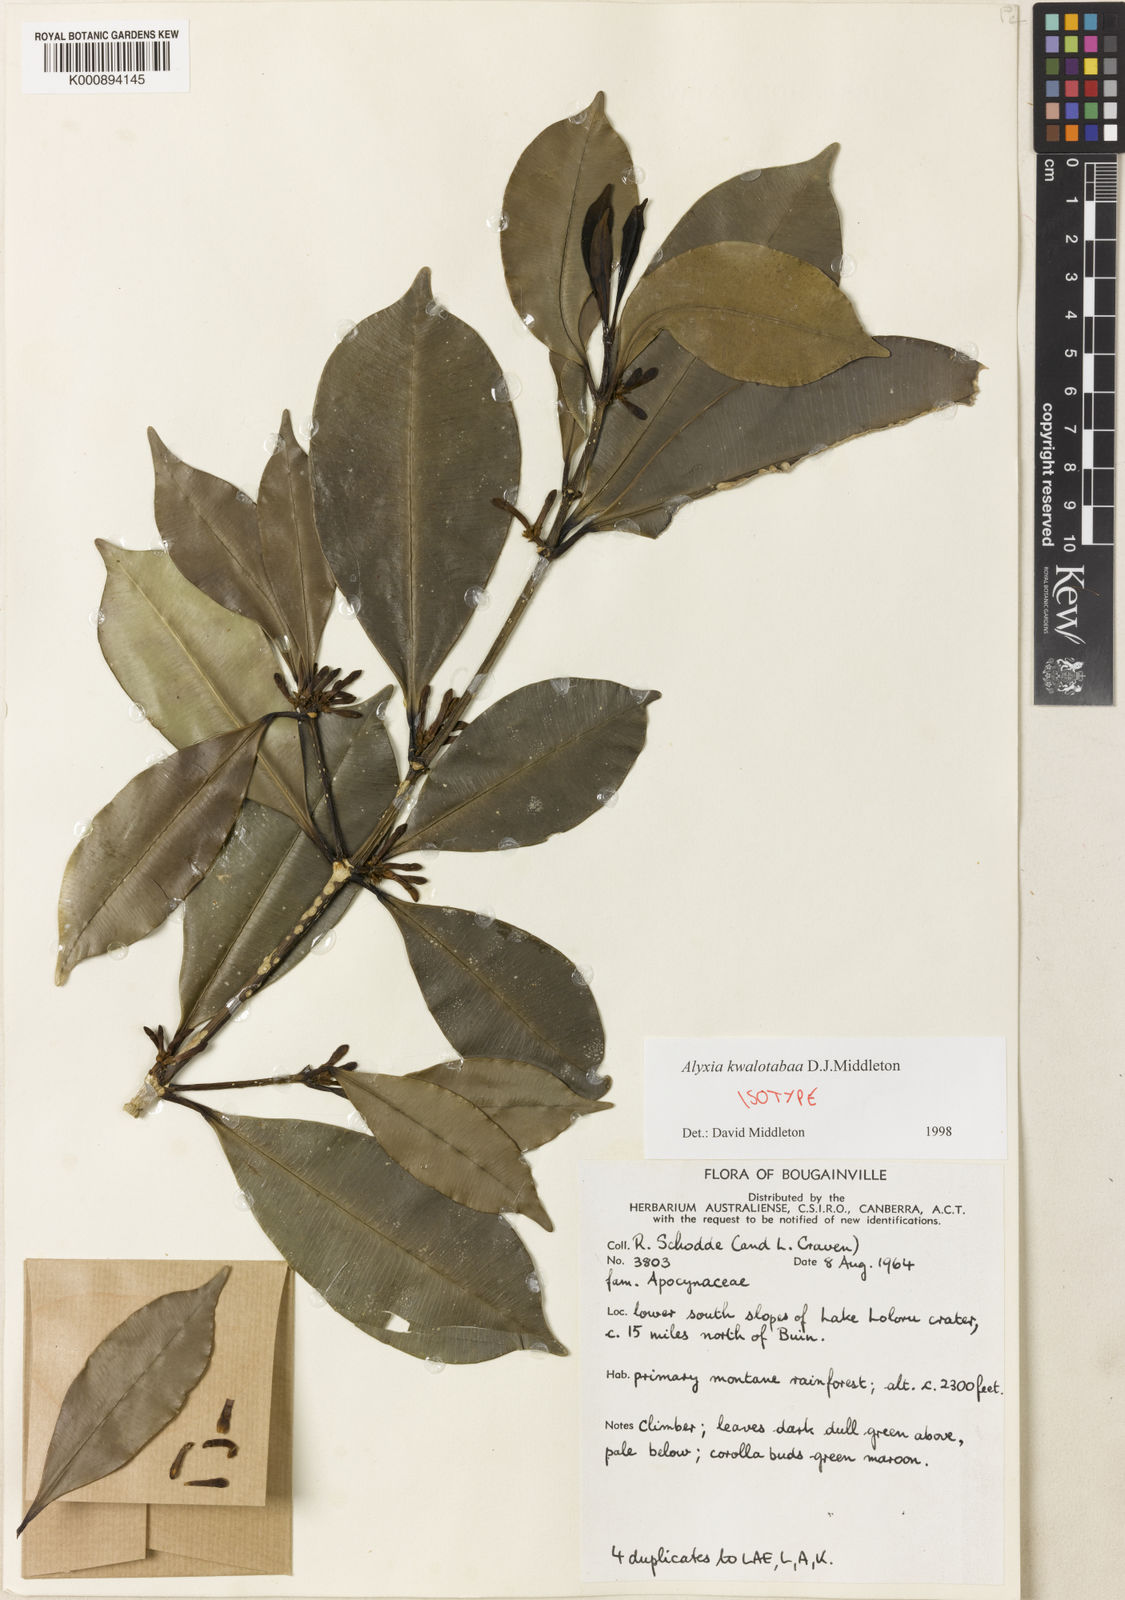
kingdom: Plantae
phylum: Tracheophyta
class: Magnoliopsida
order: Gentianales
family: Apocynaceae
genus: Alyxia
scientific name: Alyxia kwalotabaa
